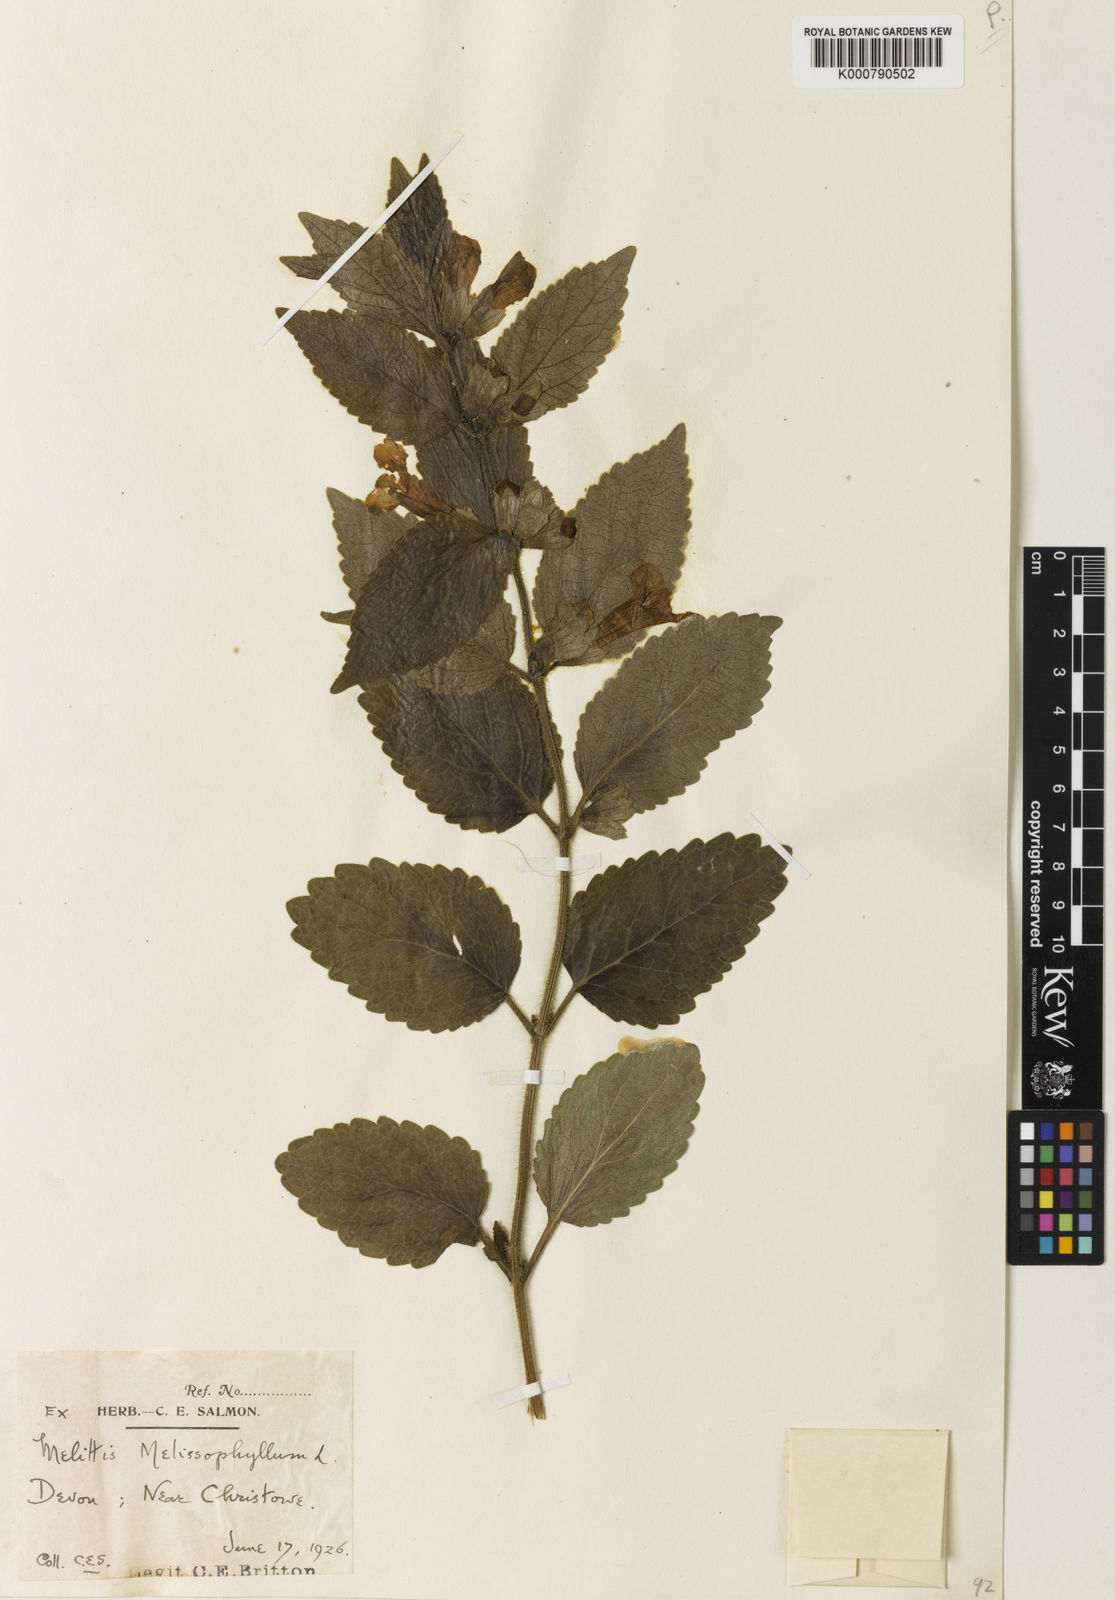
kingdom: Plantae
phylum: Tracheophyta
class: Magnoliopsida
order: Lamiales
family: Lamiaceae
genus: Melittis
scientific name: Melittis melissophyllum
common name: Bastard balm
